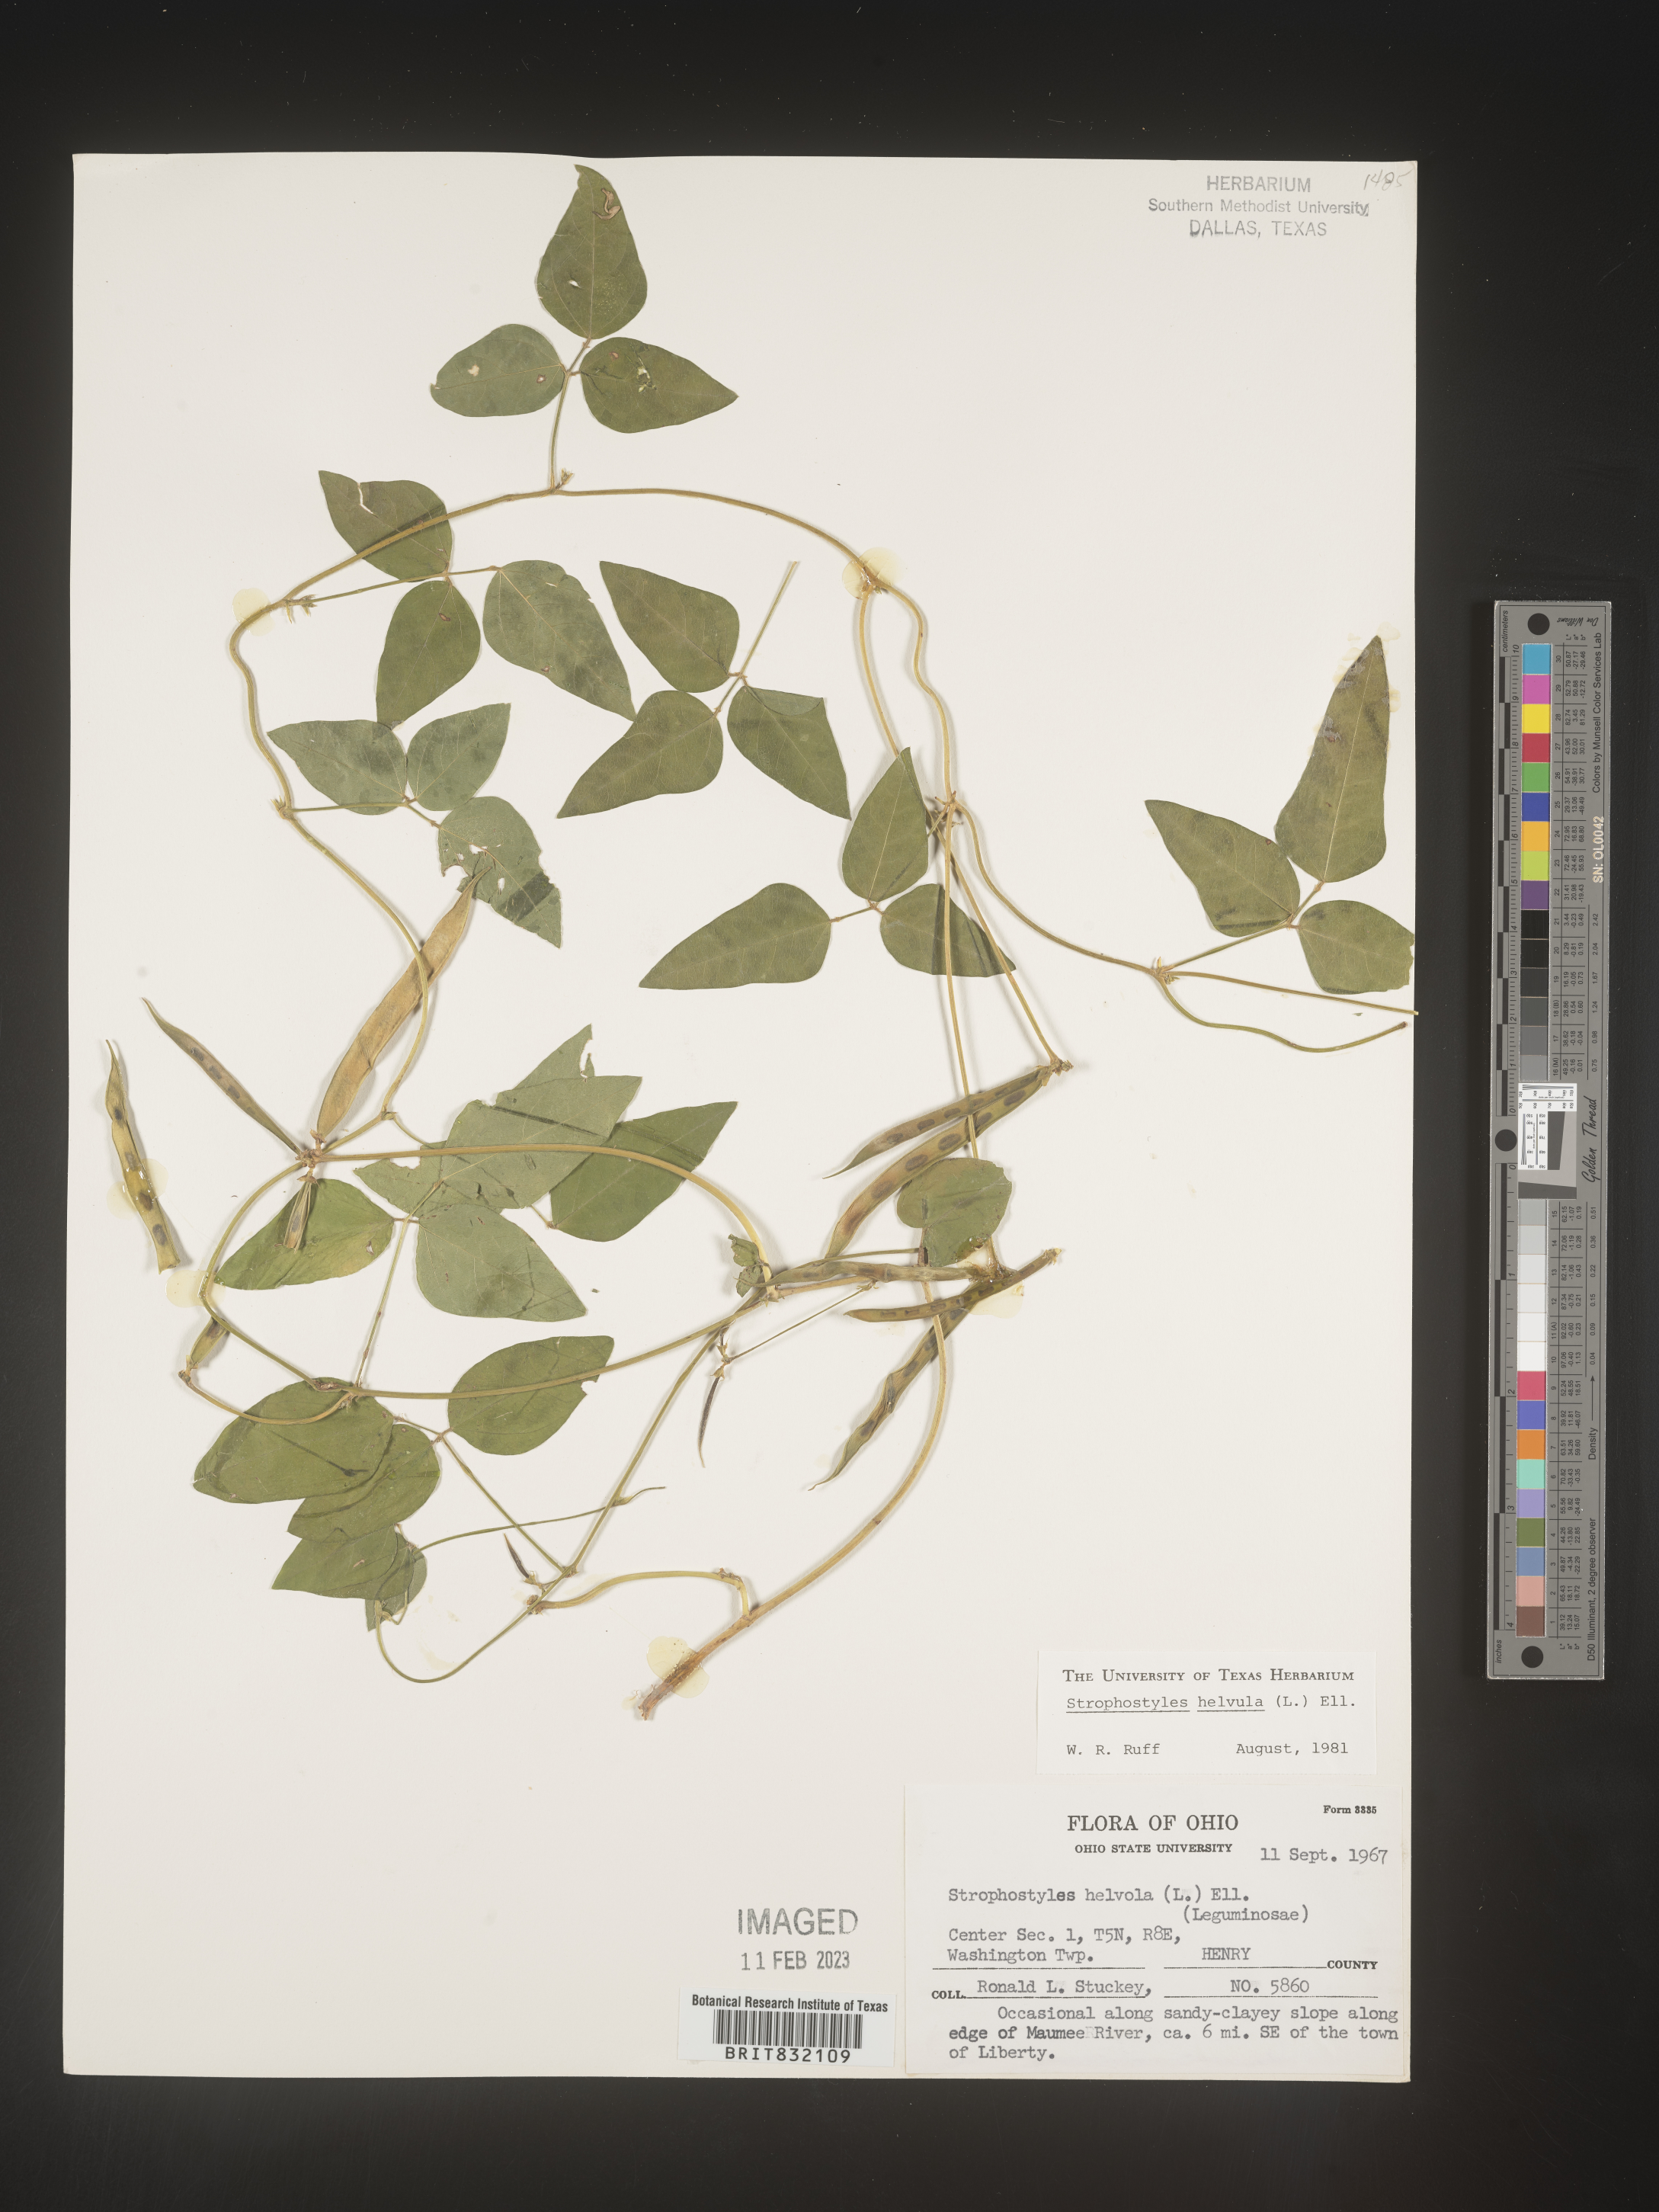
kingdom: Plantae
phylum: Tracheophyta
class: Magnoliopsida
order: Fabales
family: Fabaceae
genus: Strophostyles
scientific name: Strophostyles helvola
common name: Trailing wild bean
